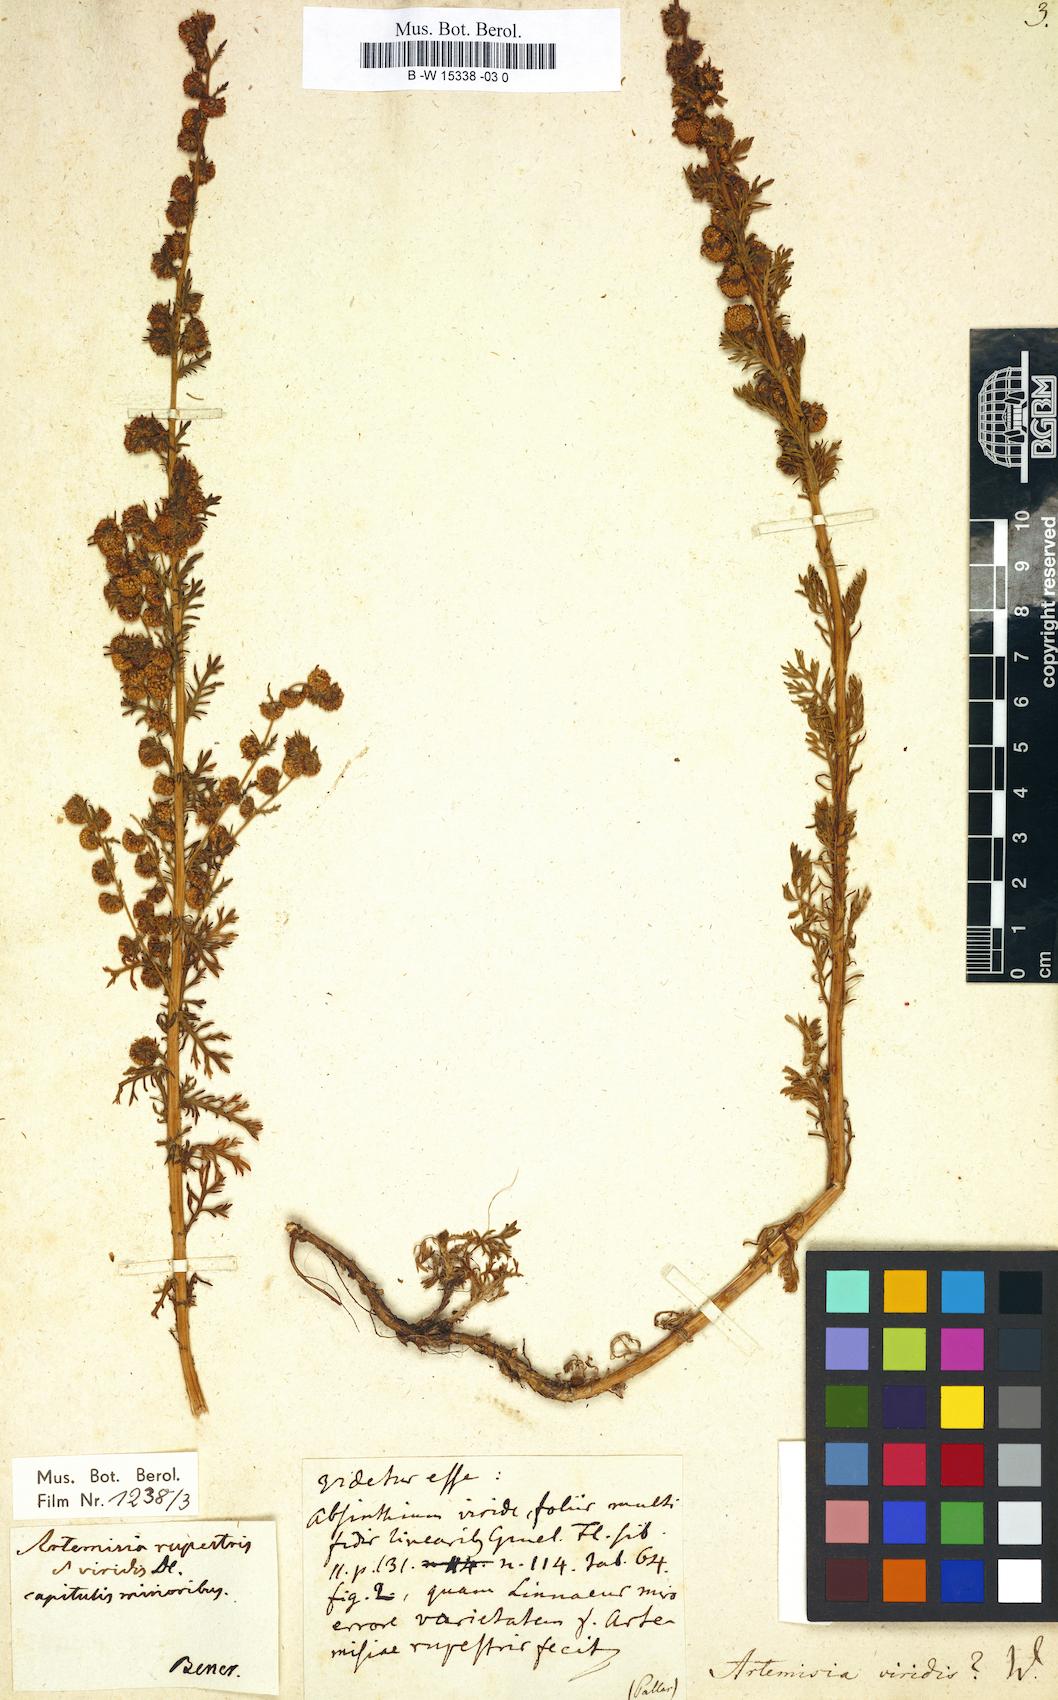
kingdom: Plantae
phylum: Tracheophyta
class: Magnoliopsida
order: Asterales
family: Asteraceae
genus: Artemisia
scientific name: Artemisia viridis
